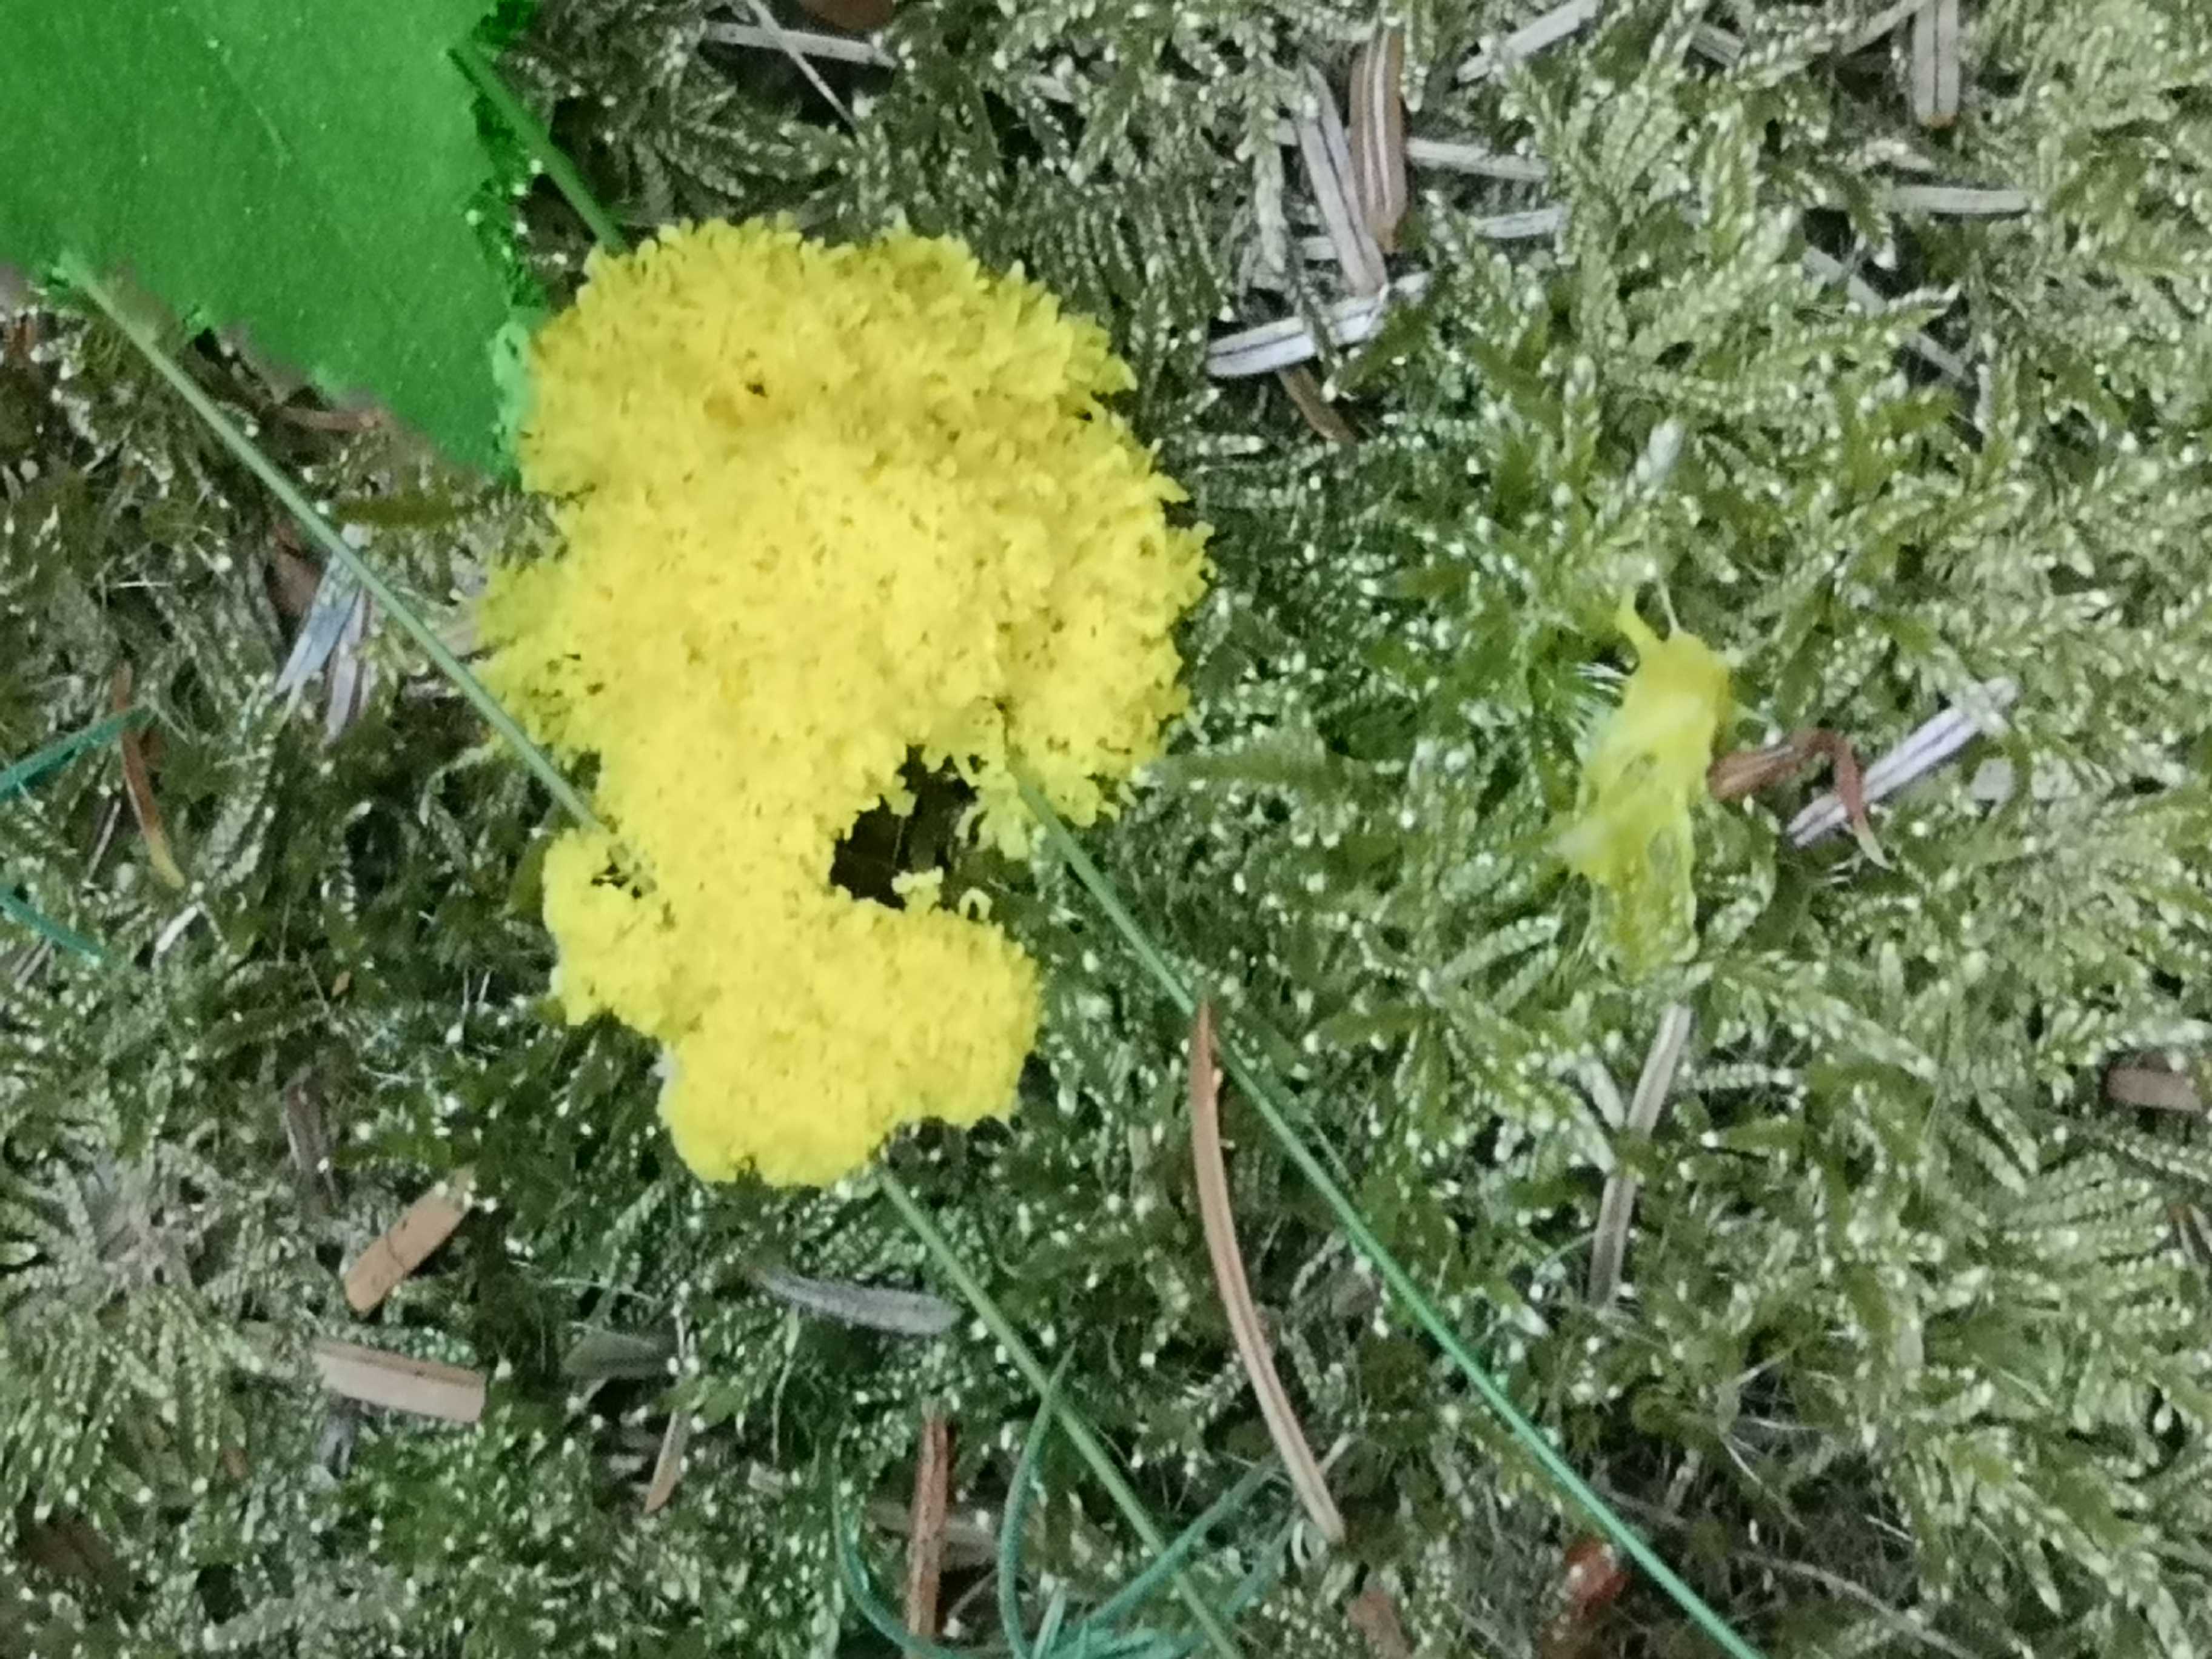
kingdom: Protozoa
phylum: Mycetozoa
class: Myxomycetes
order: Physarales
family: Physaraceae
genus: Fuligo
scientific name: Fuligo septica
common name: gul troldsmør
